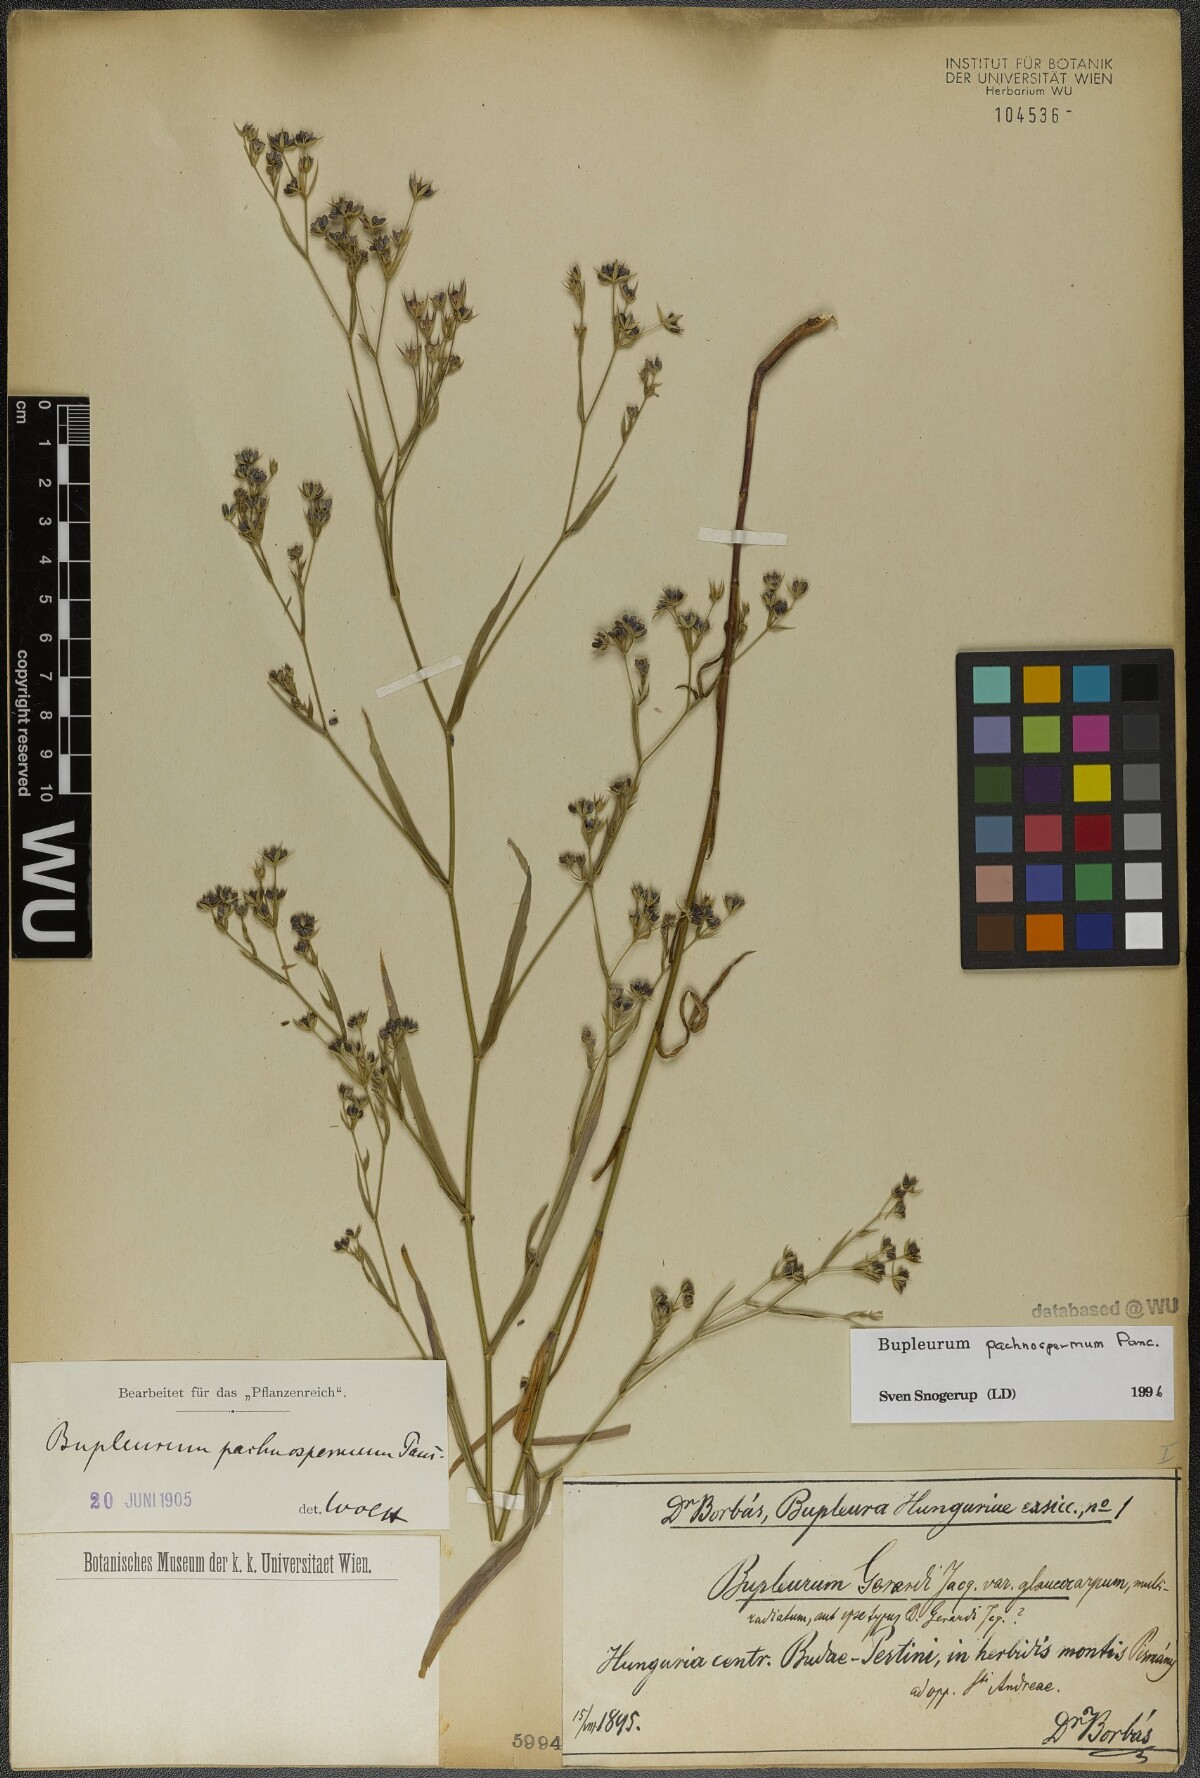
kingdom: Plantae
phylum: Tracheophyta
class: Magnoliopsida
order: Apiales
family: Apiaceae
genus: Bupleurum
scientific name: Bupleurum pachnospermum
